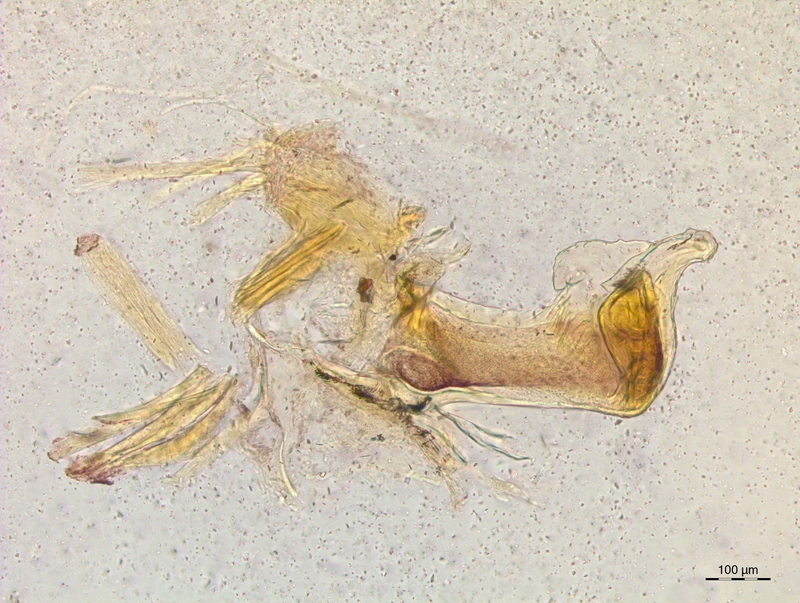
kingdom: Animalia
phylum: Arthropoda
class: Diplopoda
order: Chordeumatida
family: Craspedosomatidae
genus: Craspedosoma
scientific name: Craspedosoma rawlinsii
